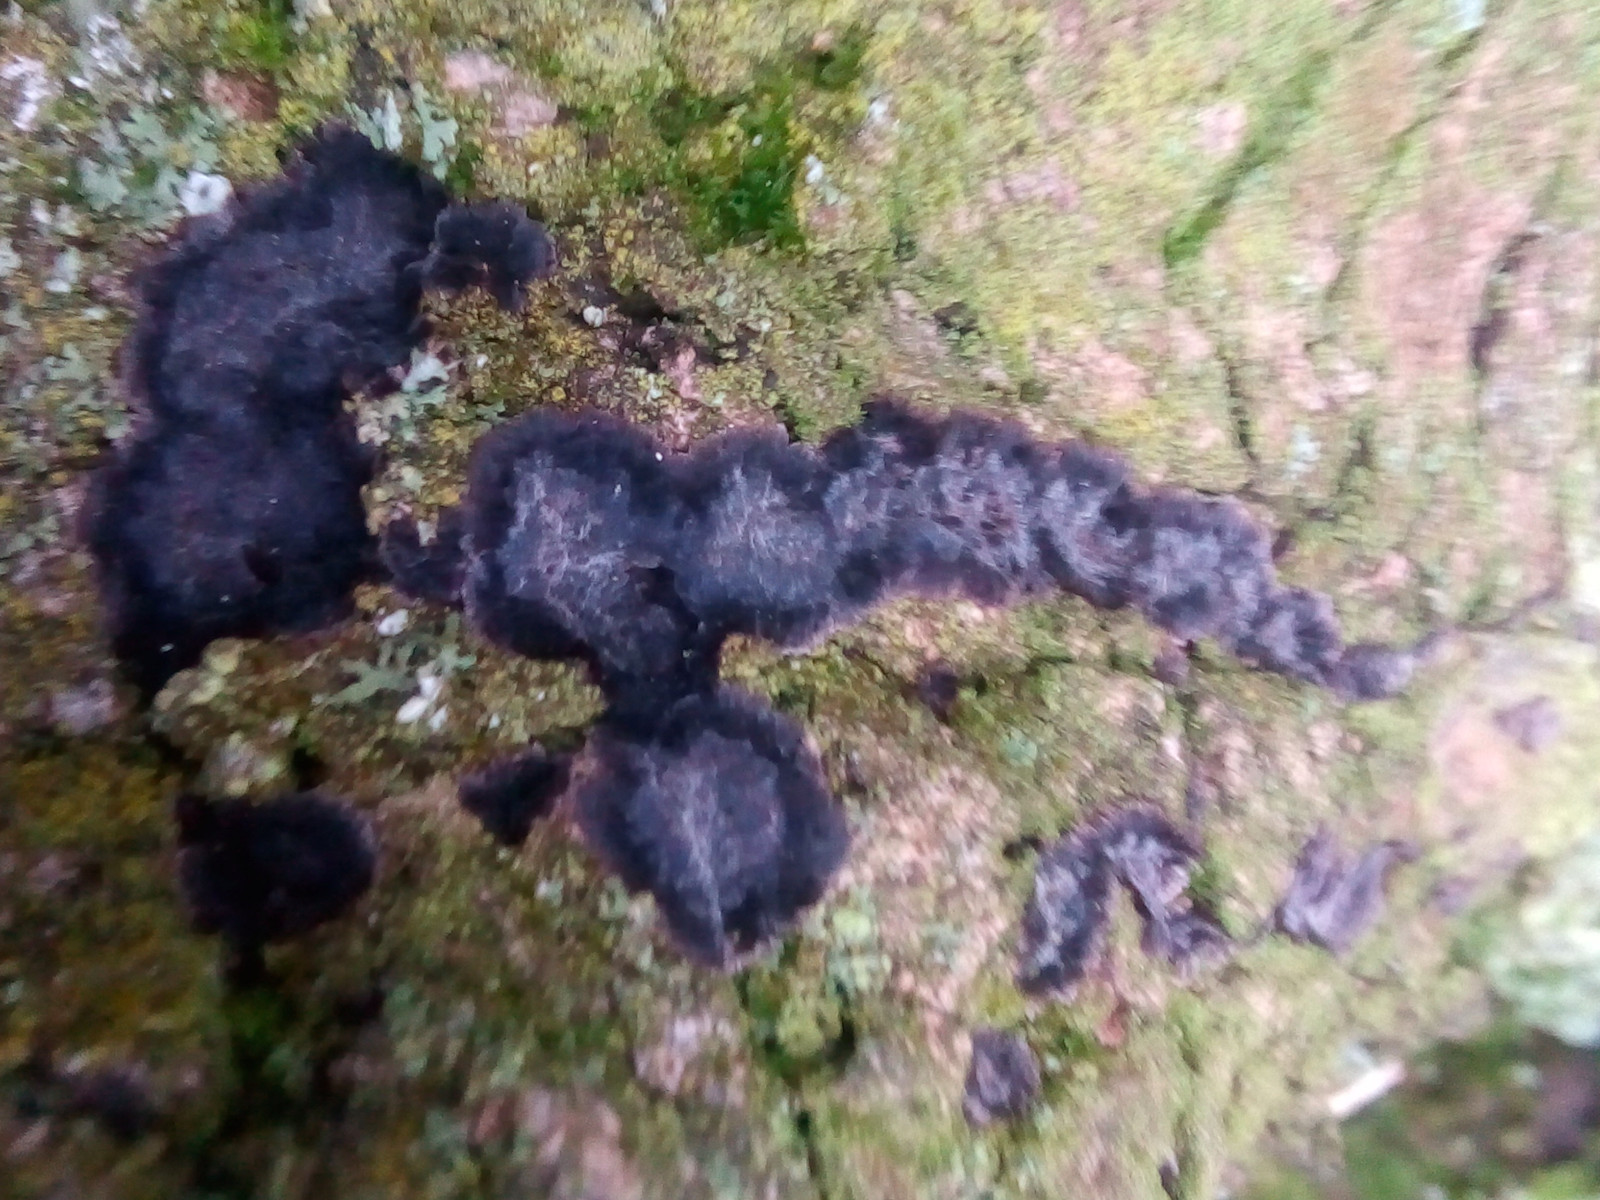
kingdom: Fungi
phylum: Basidiomycota
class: Agaricomycetes
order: Russulales
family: Peniophoraceae
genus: Peniophora
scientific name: Peniophora limitata
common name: mørkrandet voksskind
